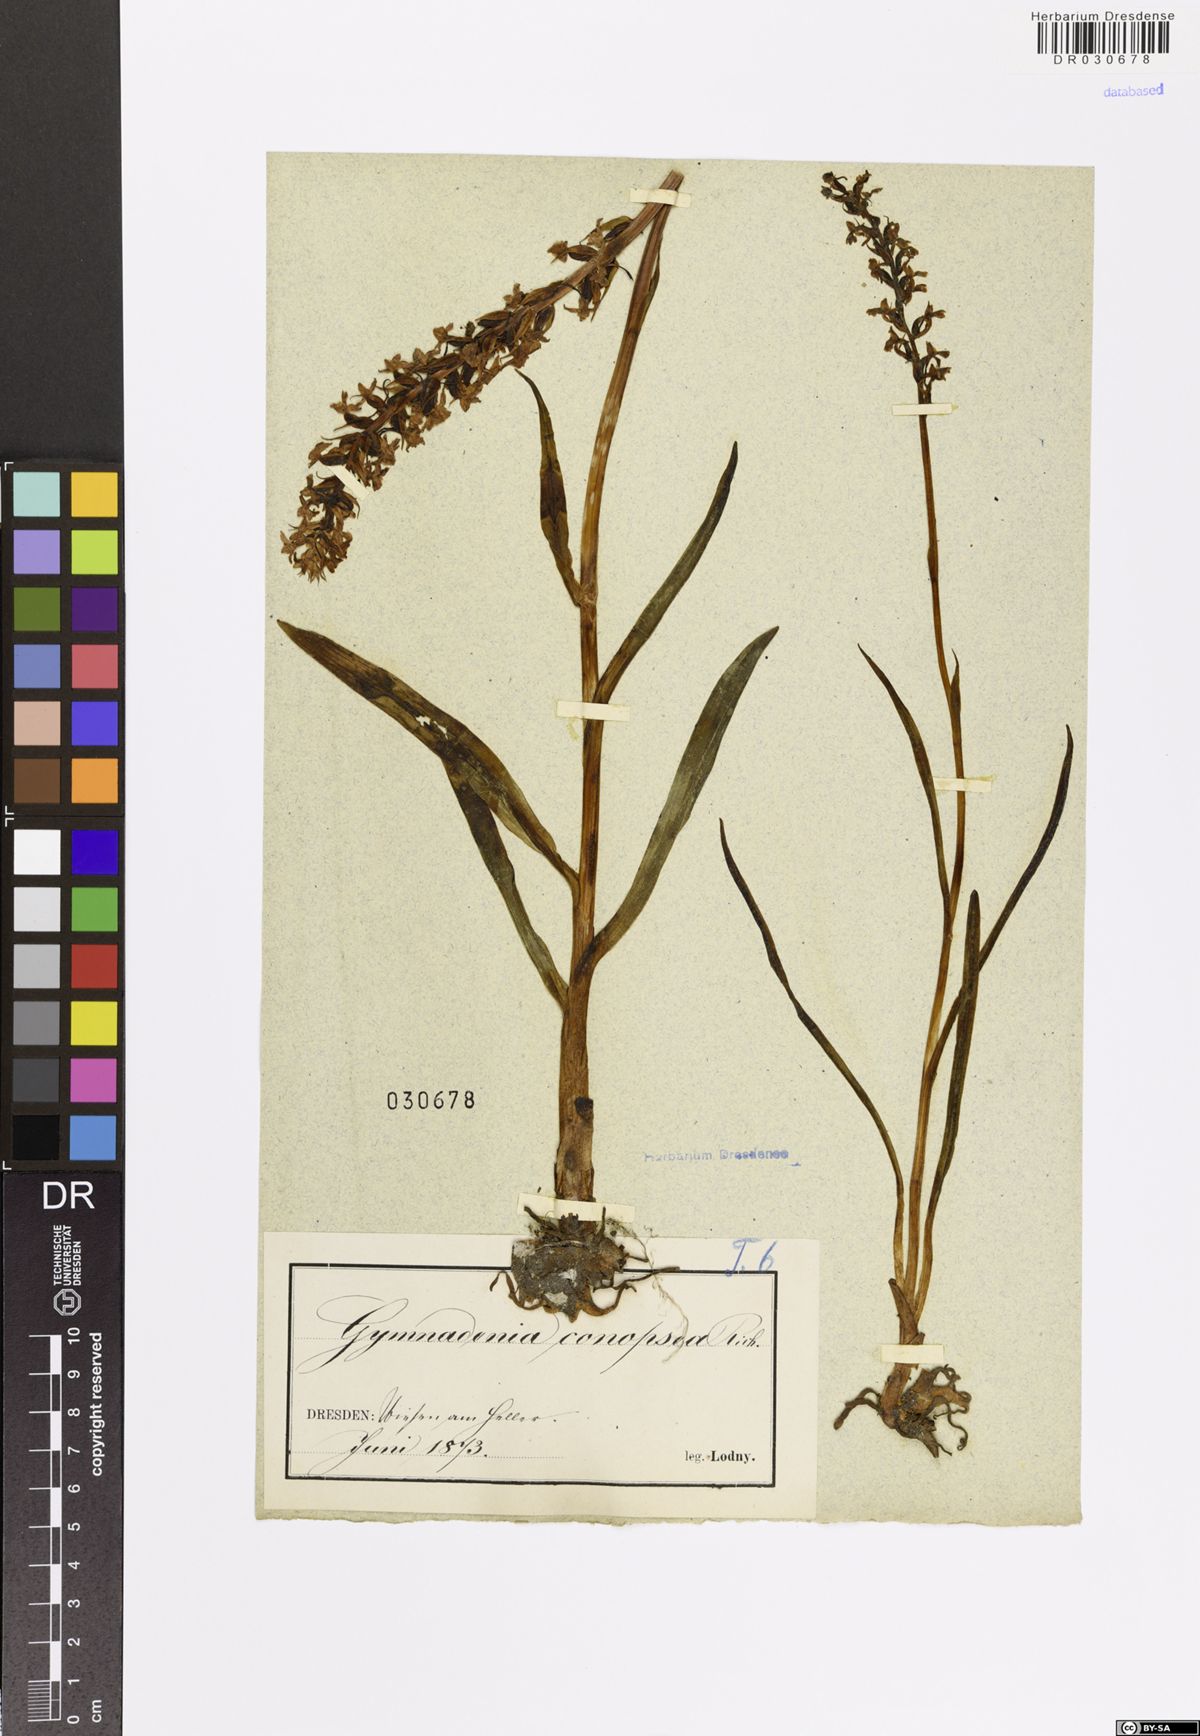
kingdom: Plantae
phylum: Tracheophyta
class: Liliopsida
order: Asparagales
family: Orchidaceae
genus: Gymnadenia
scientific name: Gymnadenia conopsea
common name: Fragrant orchid
